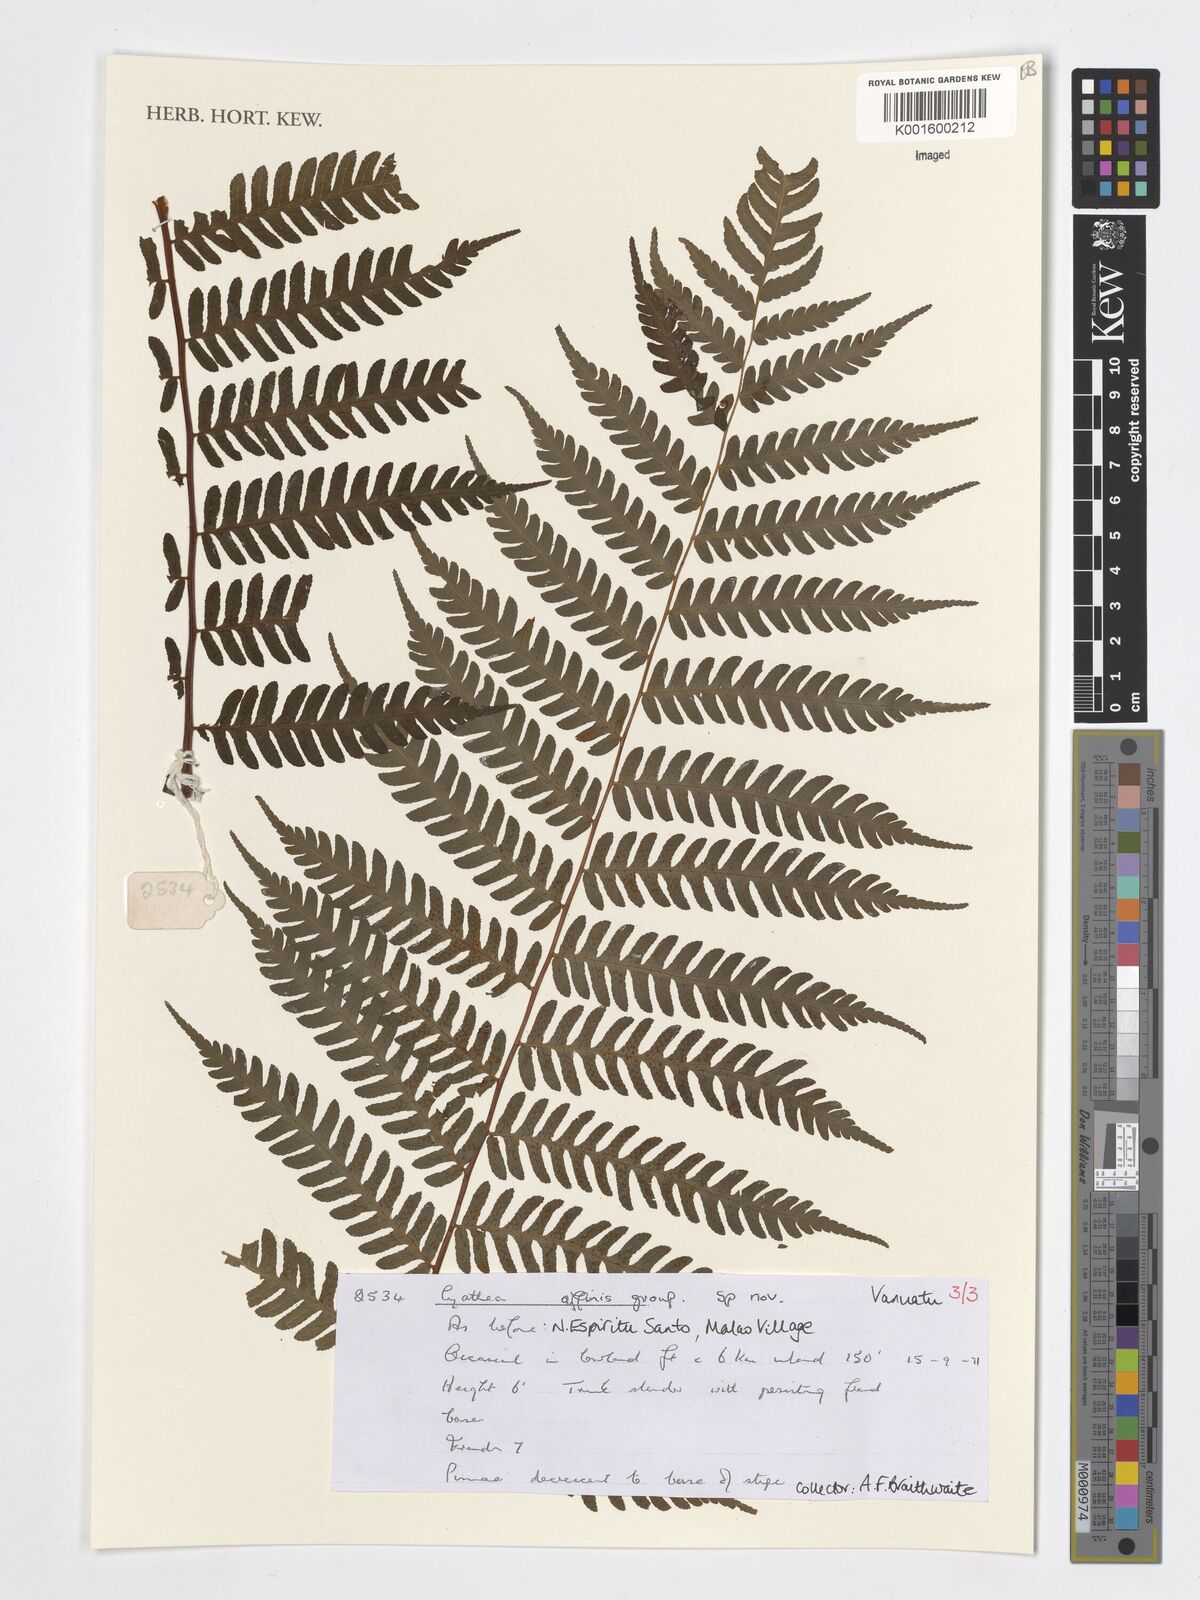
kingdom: Plantae
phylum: Tracheophyta
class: Polypodiopsida
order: Cyatheales
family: Cyatheaceae
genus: Cyathea
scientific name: Cyathea
